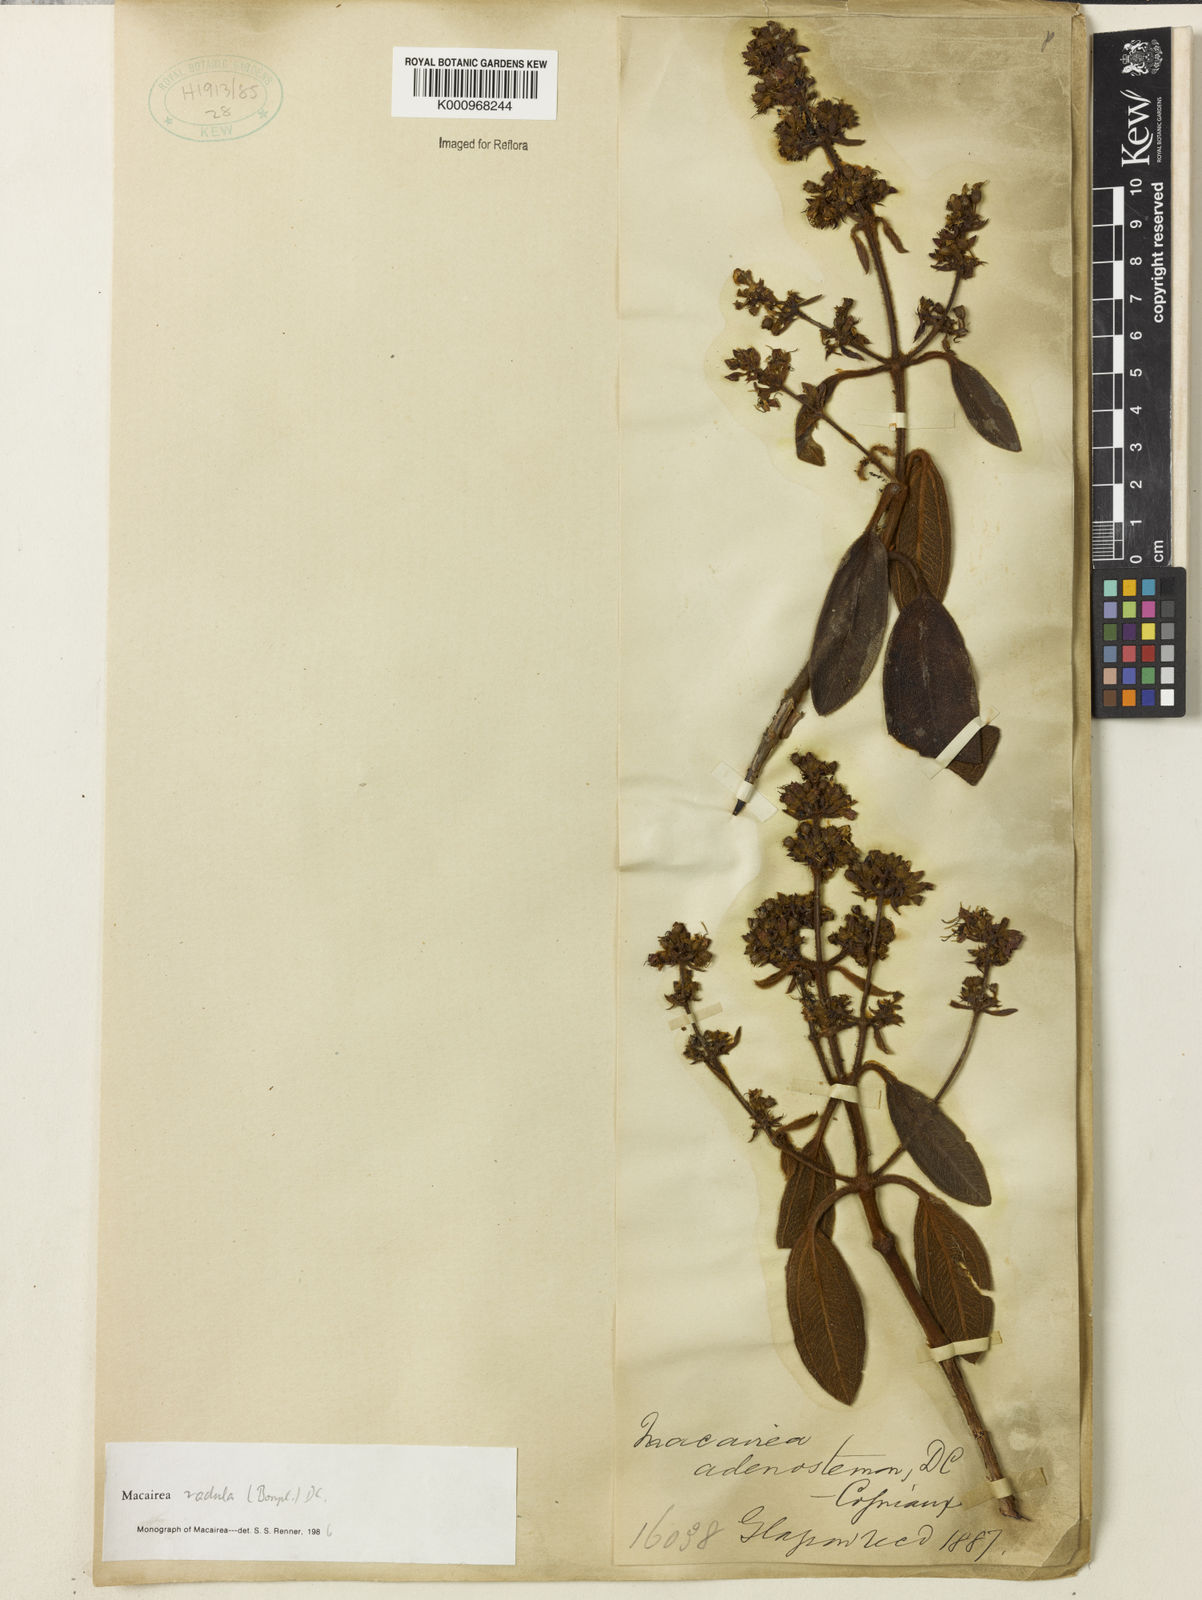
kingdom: Plantae
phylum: Tracheophyta
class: Magnoliopsida
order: Myrtales
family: Melastomataceae
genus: Macairea
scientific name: Macairea radula
